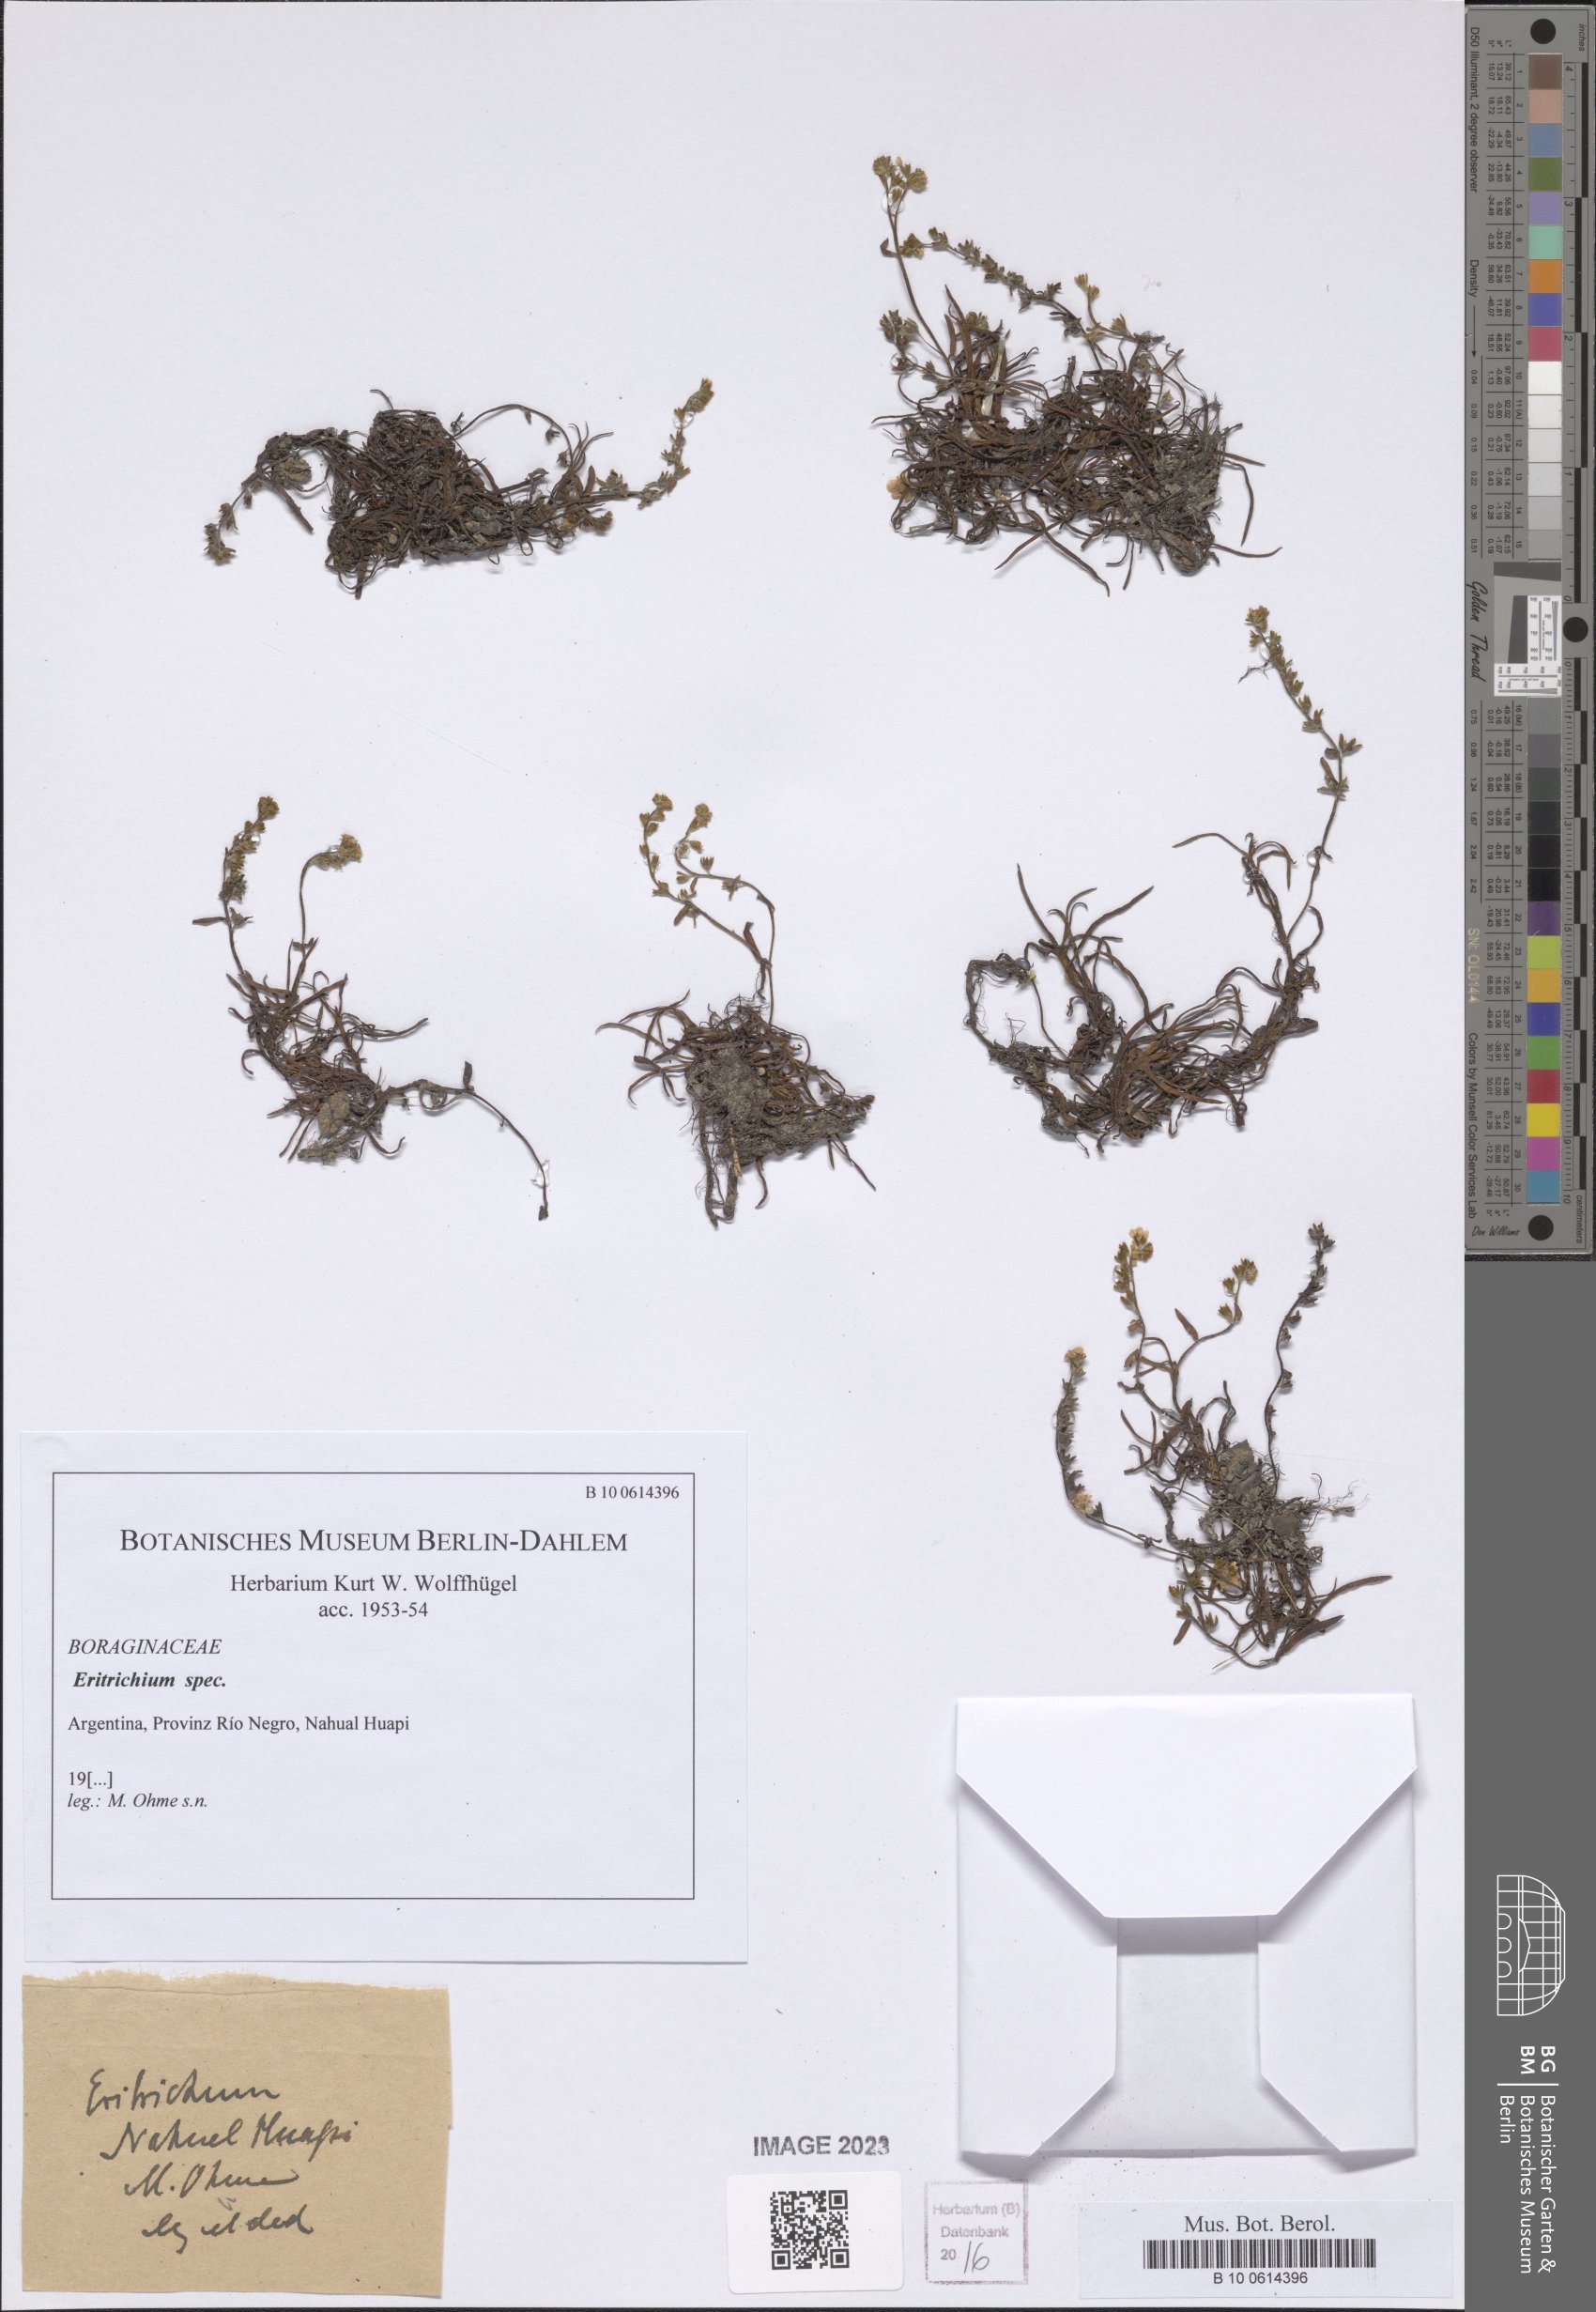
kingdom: Plantae
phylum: Tracheophyta
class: Magnoliopsida
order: Boraginales
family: Boraginaceae
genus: Eritrichium
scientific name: Eritrichium
